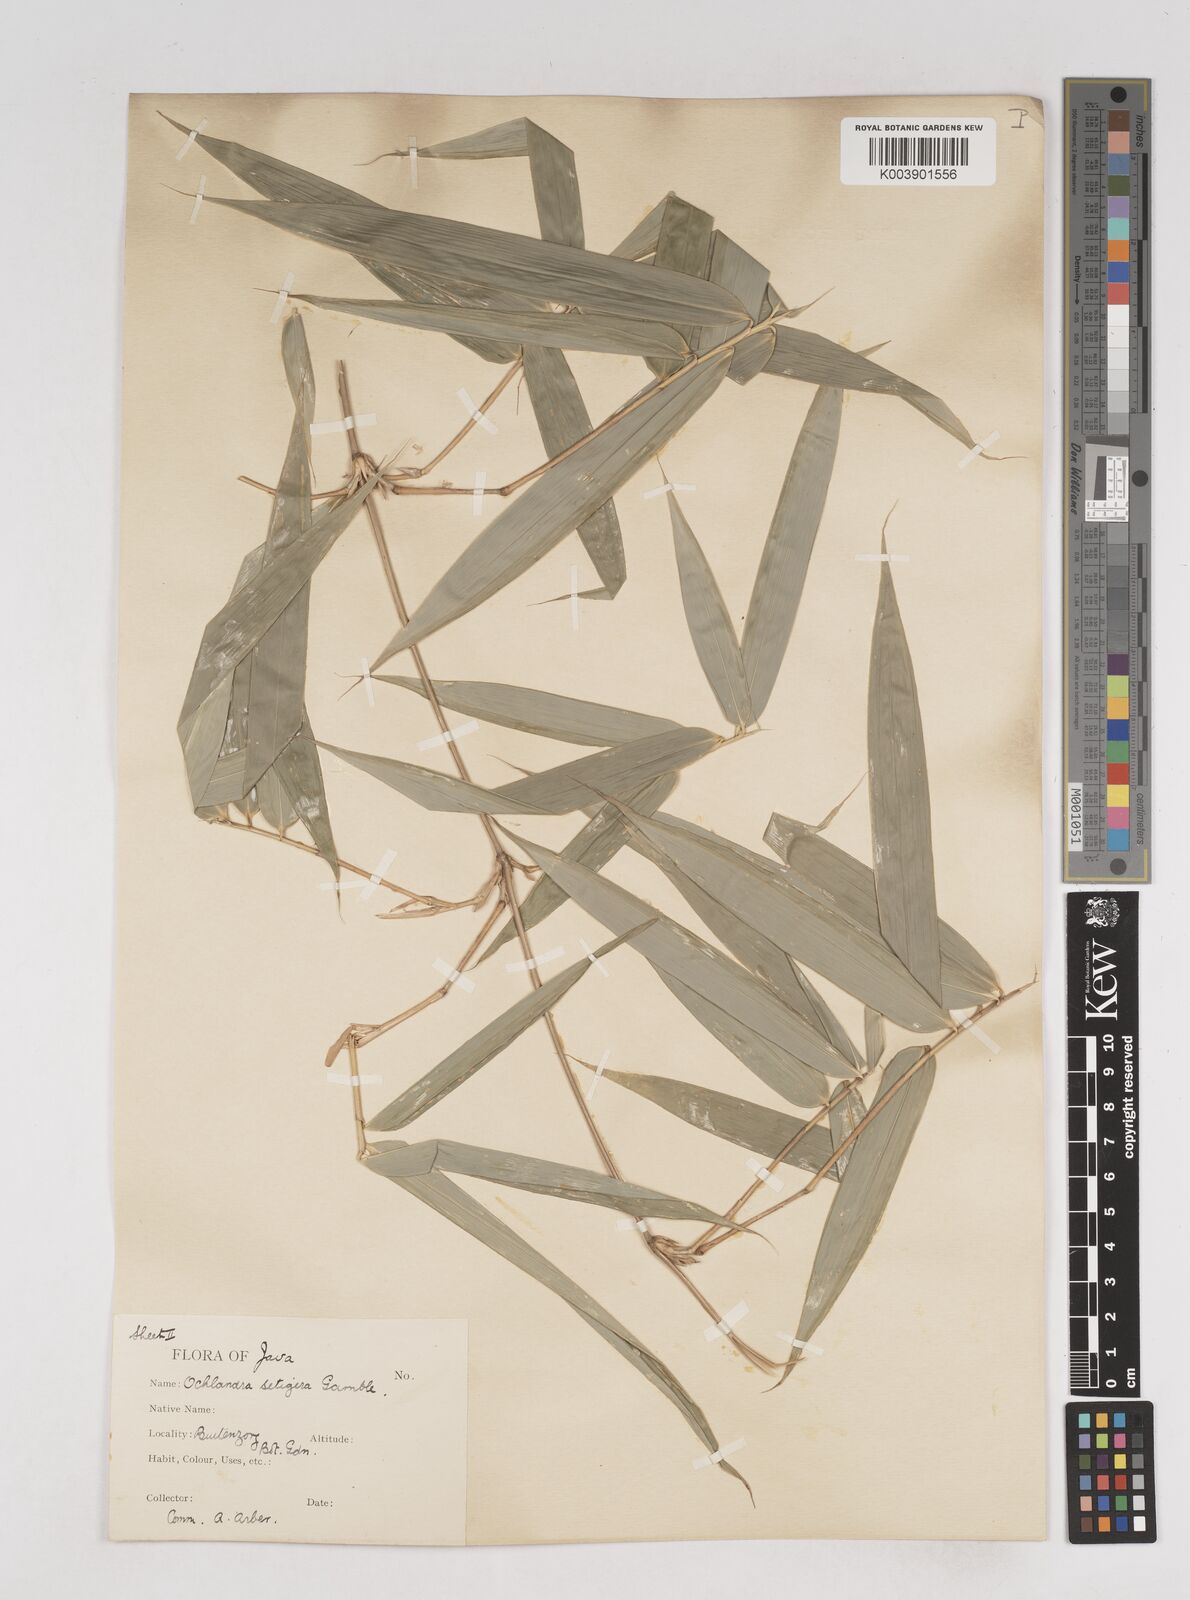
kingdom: Plantae
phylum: Tracheophyta
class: Liliopsida
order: Poales
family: Poaceae
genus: Ochlandra
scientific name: Ochlandra setigera
